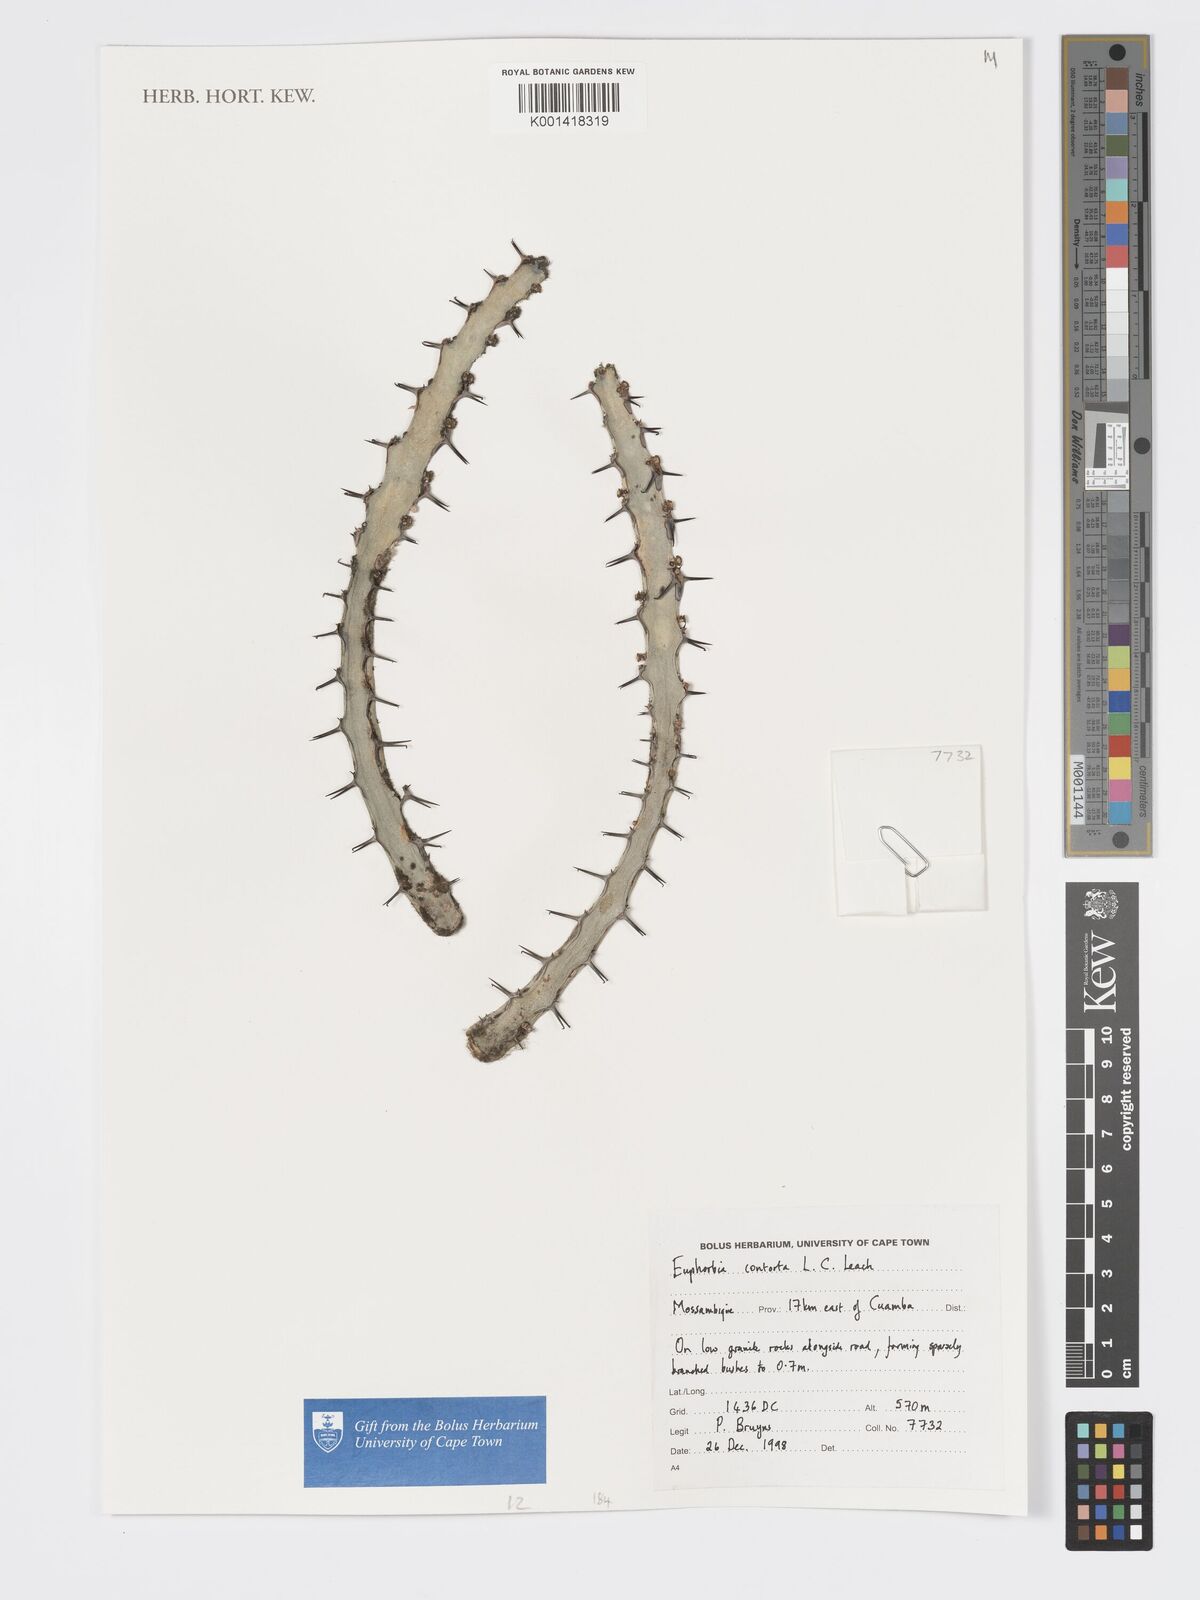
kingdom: Plantae
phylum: Tracheophyta
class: Magnoliopsida
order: Malpighiales
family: Euphorbiaceae
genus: Euphorbia
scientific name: Euphorbia contorta
